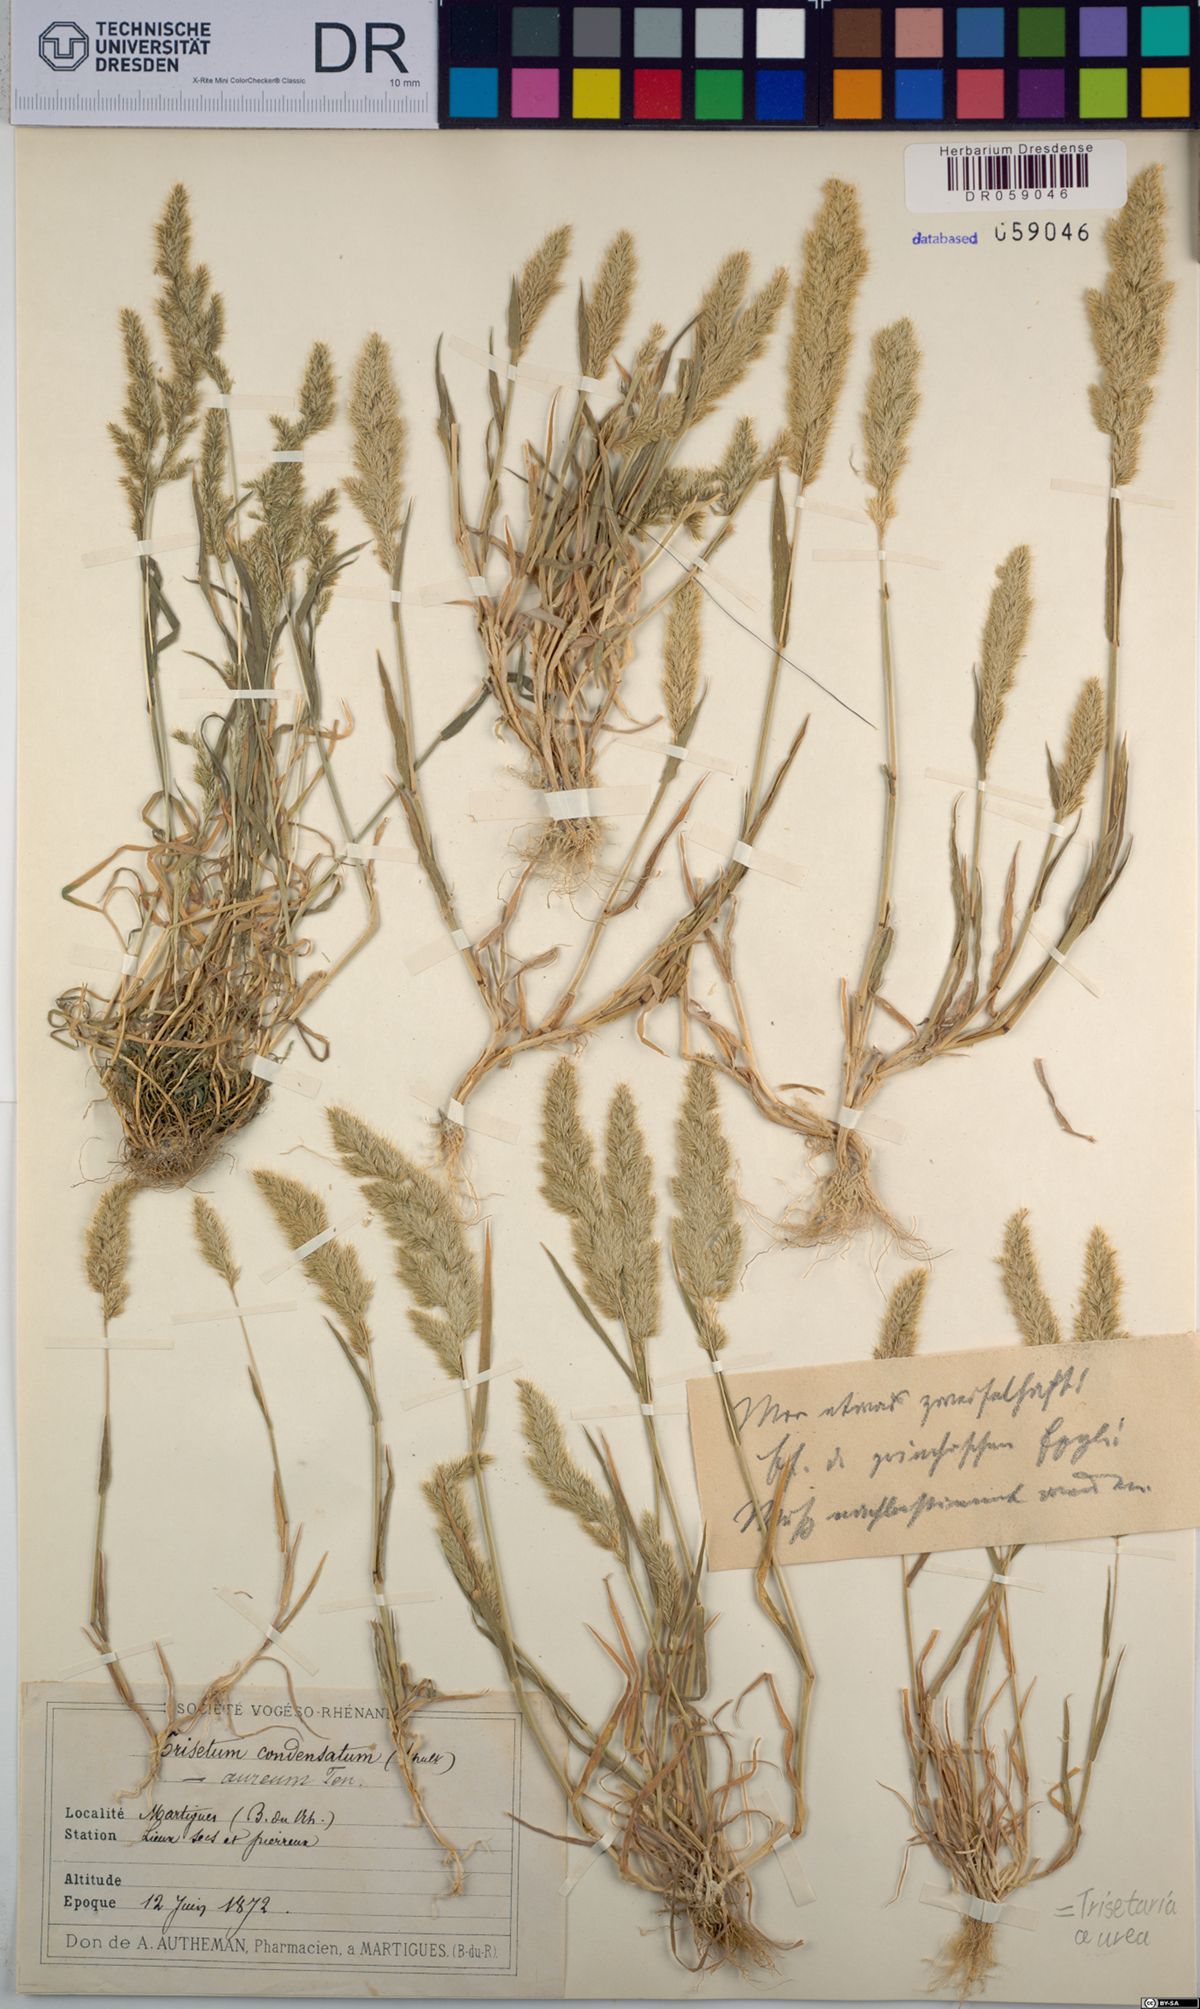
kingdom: Plantae
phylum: Tracheophyta
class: Liliopsida
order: Poales
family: Poaceae
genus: Trisetaria
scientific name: Trisetaria aurea
